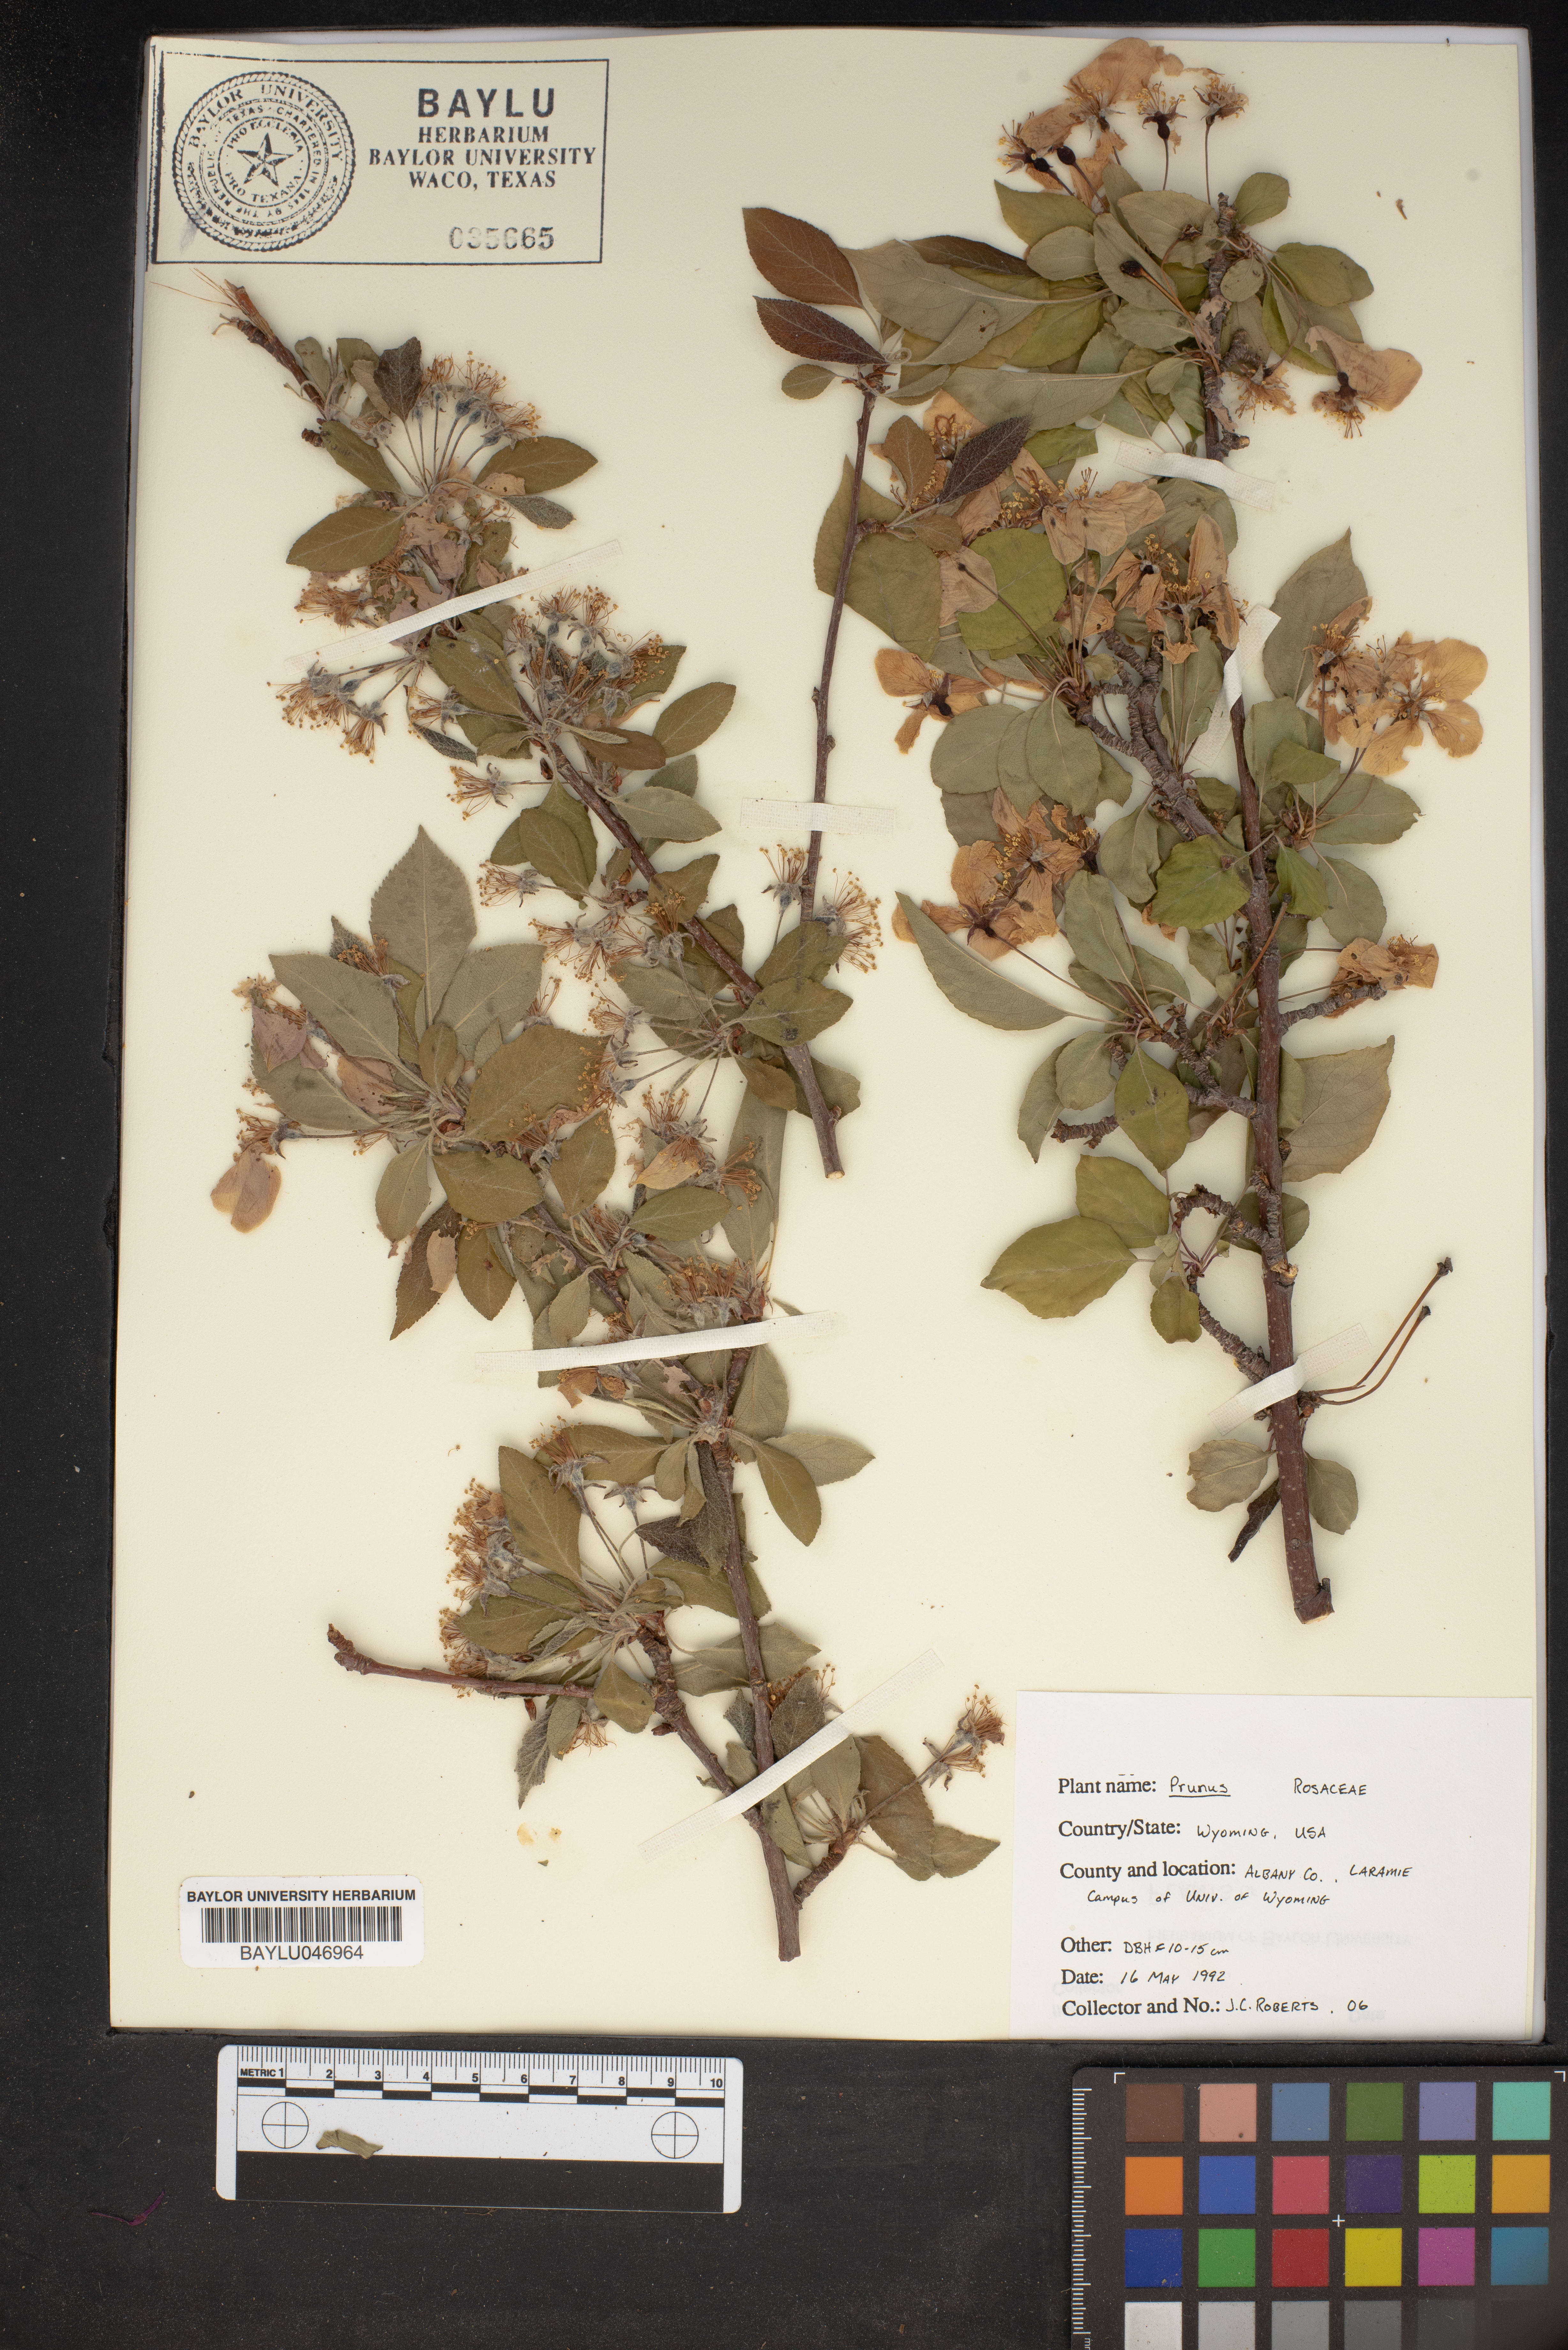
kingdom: Plantae
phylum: Tracheophyta
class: Magnoliopsida
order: Rosales
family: Rosaceae
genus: Prunus
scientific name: Prunus
